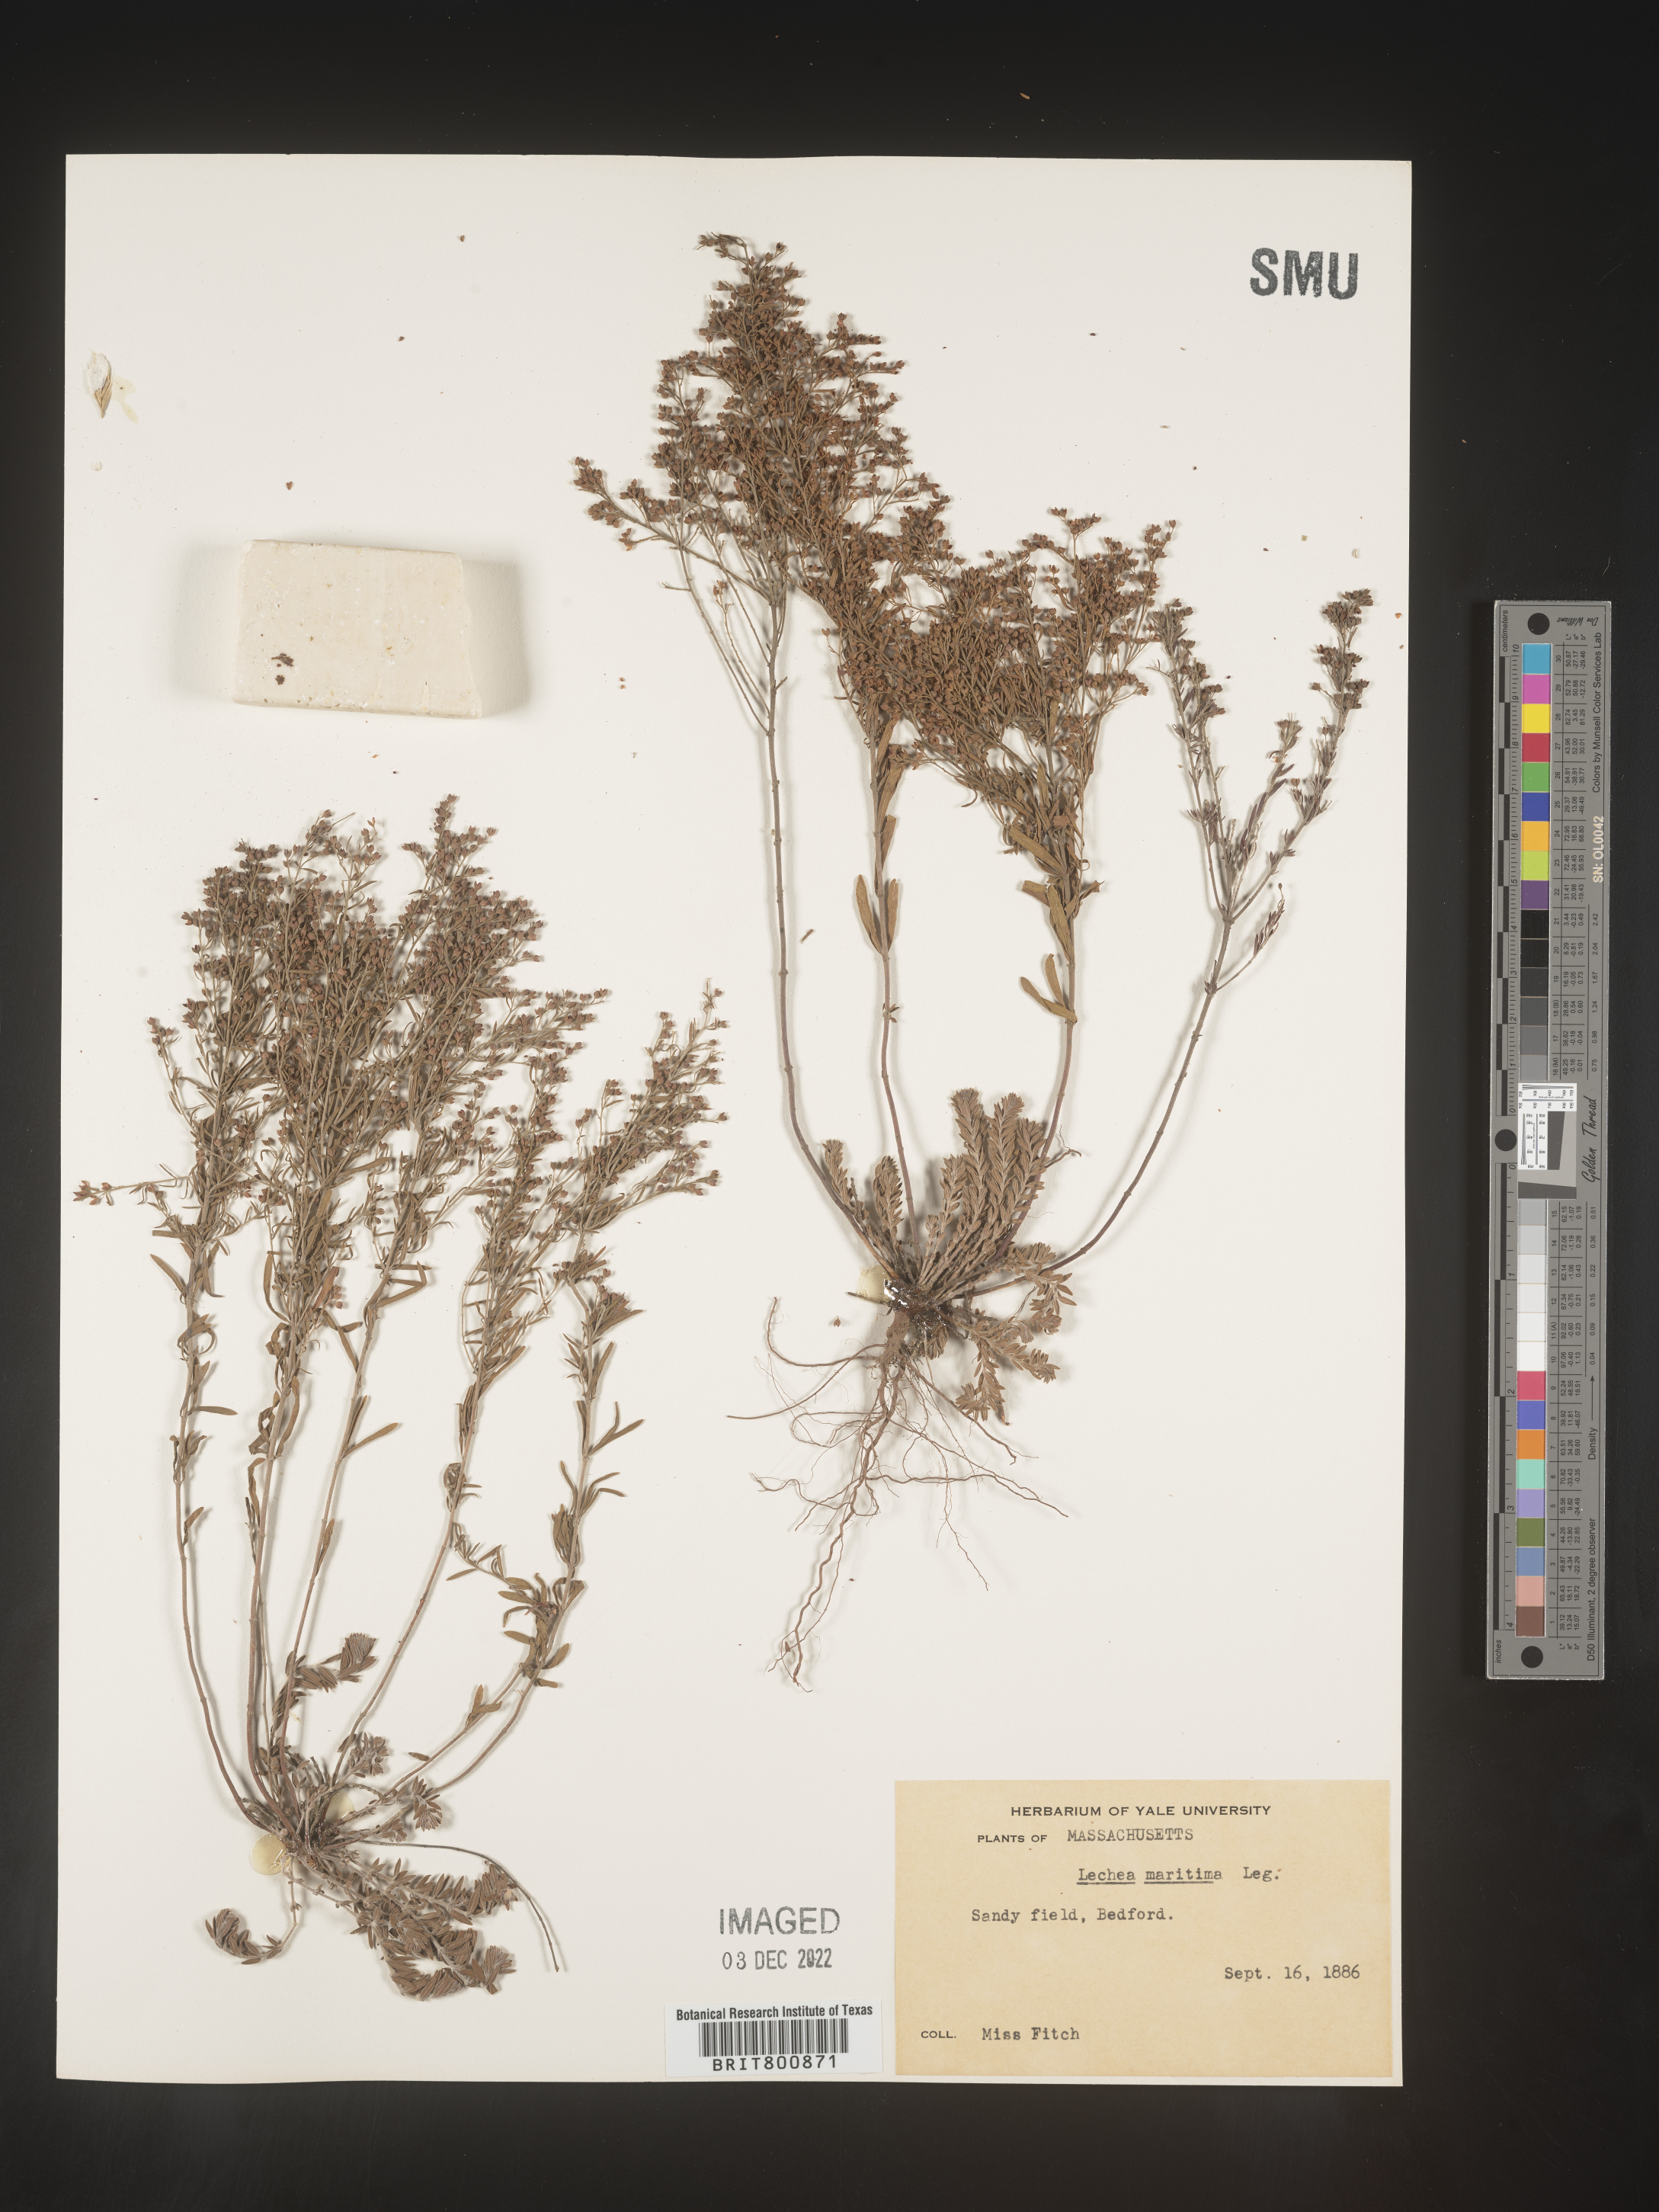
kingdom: Plantae
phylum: Tracheophyta
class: Magnoliopsida
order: Malvales
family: Cistaceae
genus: Lechea
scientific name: Lechea maritima
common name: Beach pinweed
